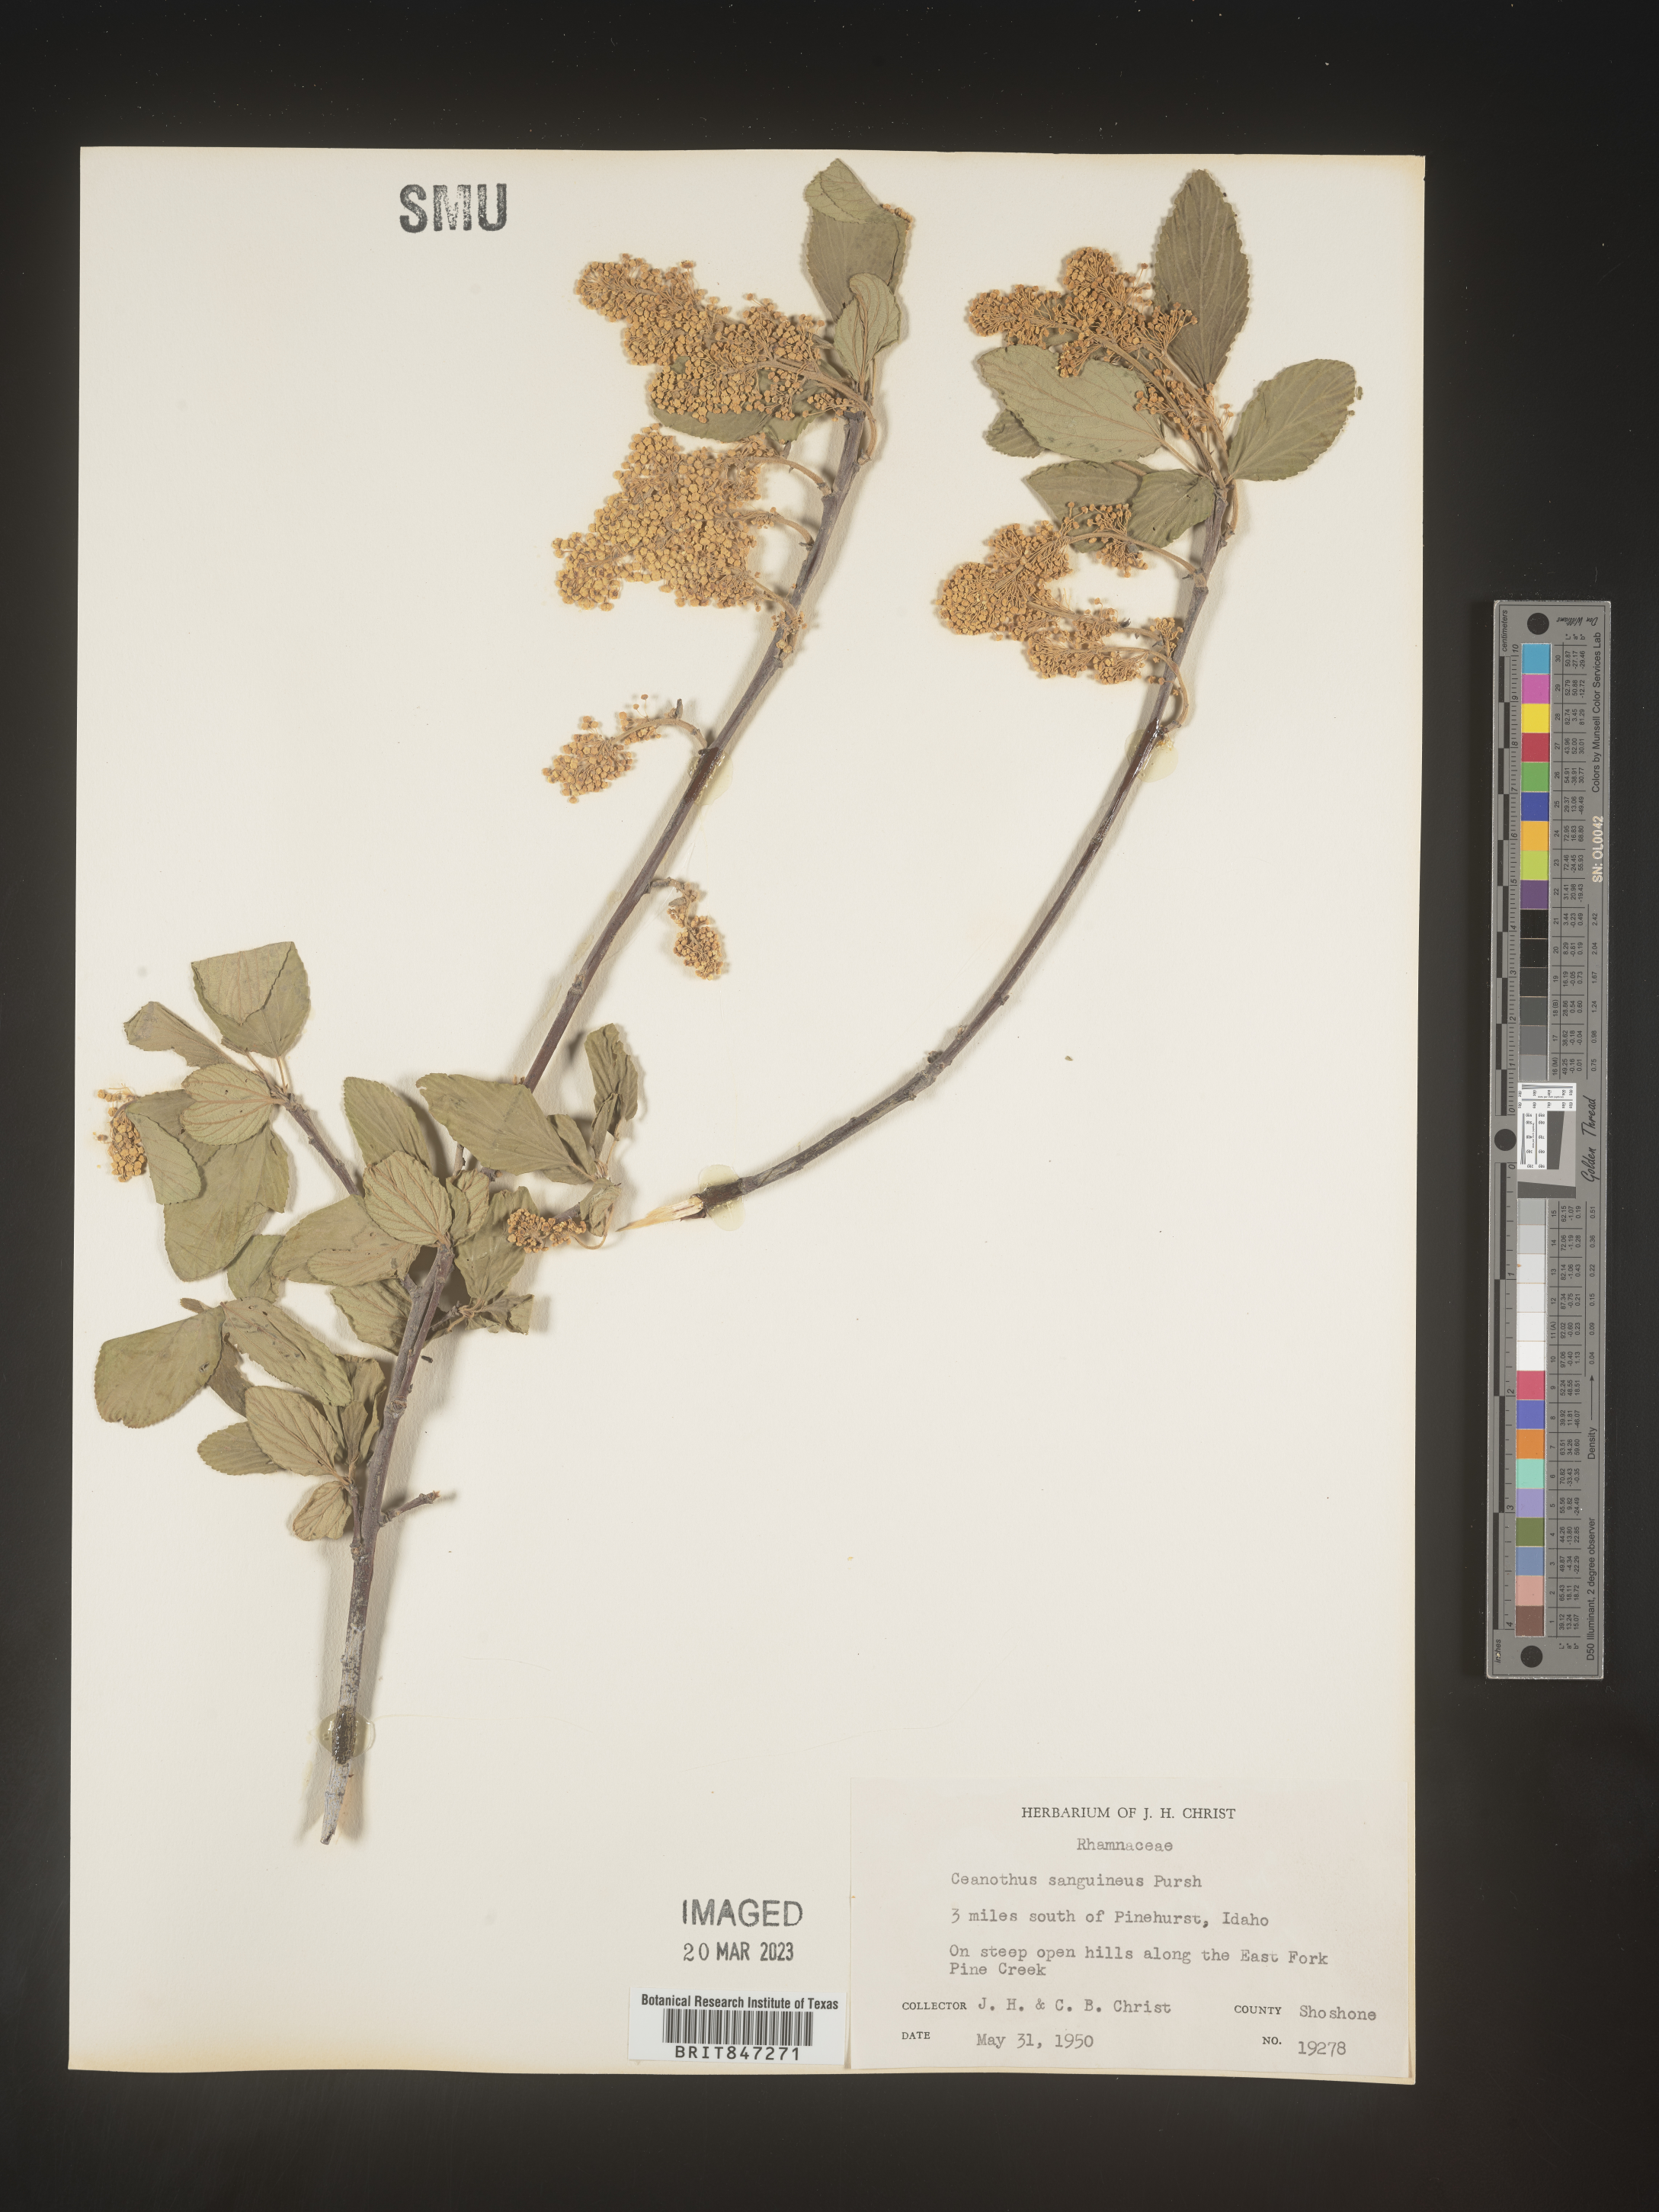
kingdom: Plantae
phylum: Tracheophyta
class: Magnoliopsida
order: Rosales
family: Rhamnaceae
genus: Ceanothus
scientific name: Ceanothus
